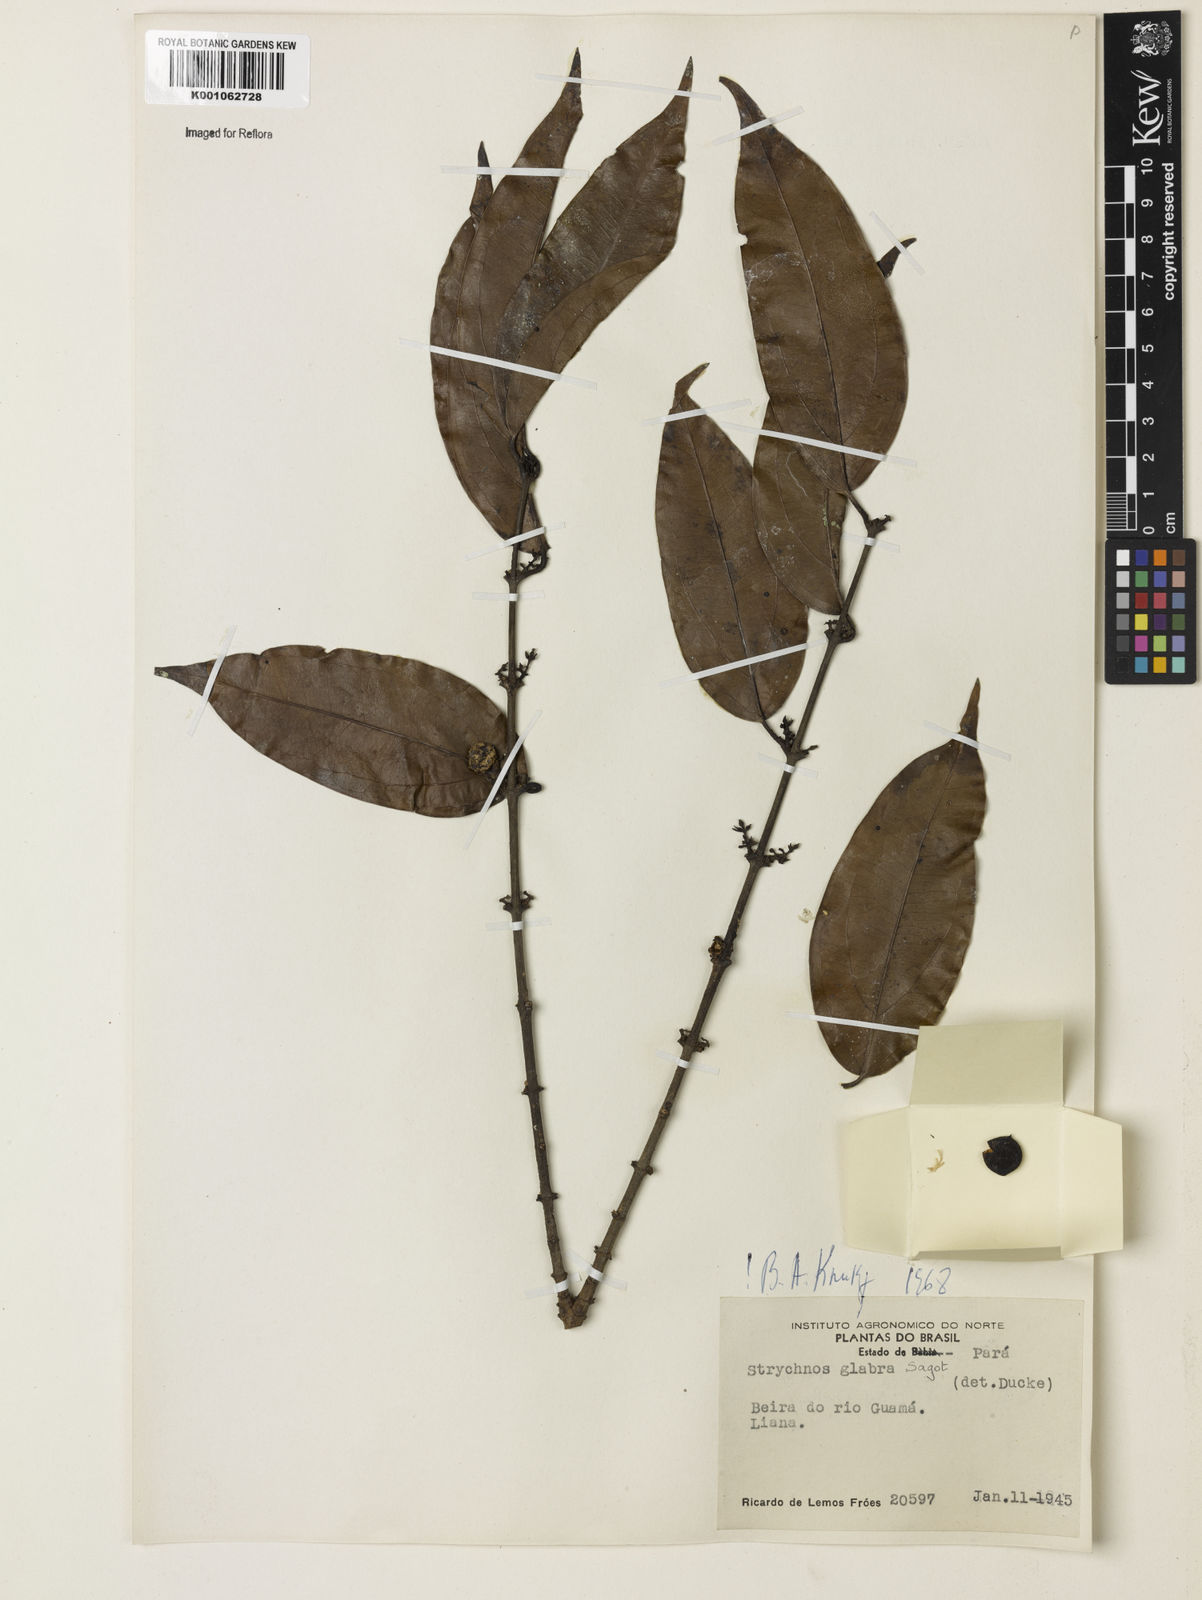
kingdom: Plantae
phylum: Tracheophyta
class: Magnoliopsida
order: Gentianales
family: Loganiaceae
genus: Strychnos
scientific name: Strychnos glabra
